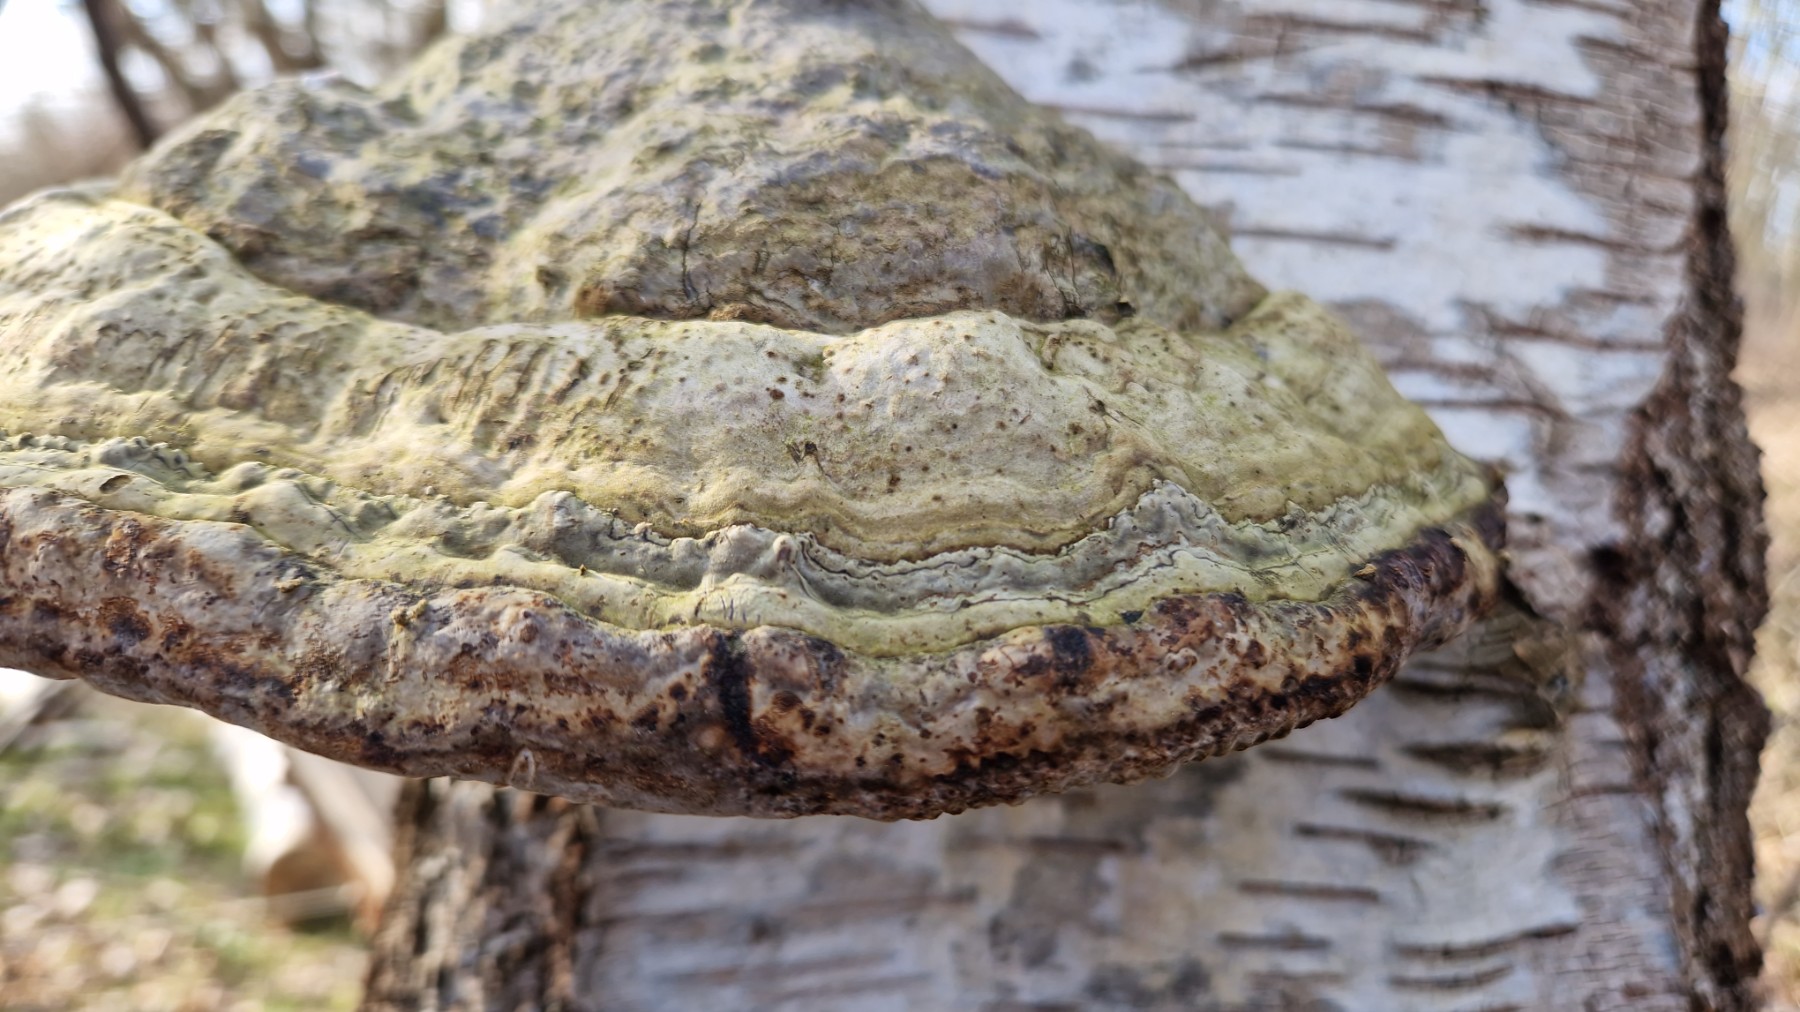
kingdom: Fungi
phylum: Basidiomycota
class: Agaricomycetes
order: Polyporales
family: Polyporaceae
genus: Fomes
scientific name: Fomes fomentarius
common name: tøndersvamp
